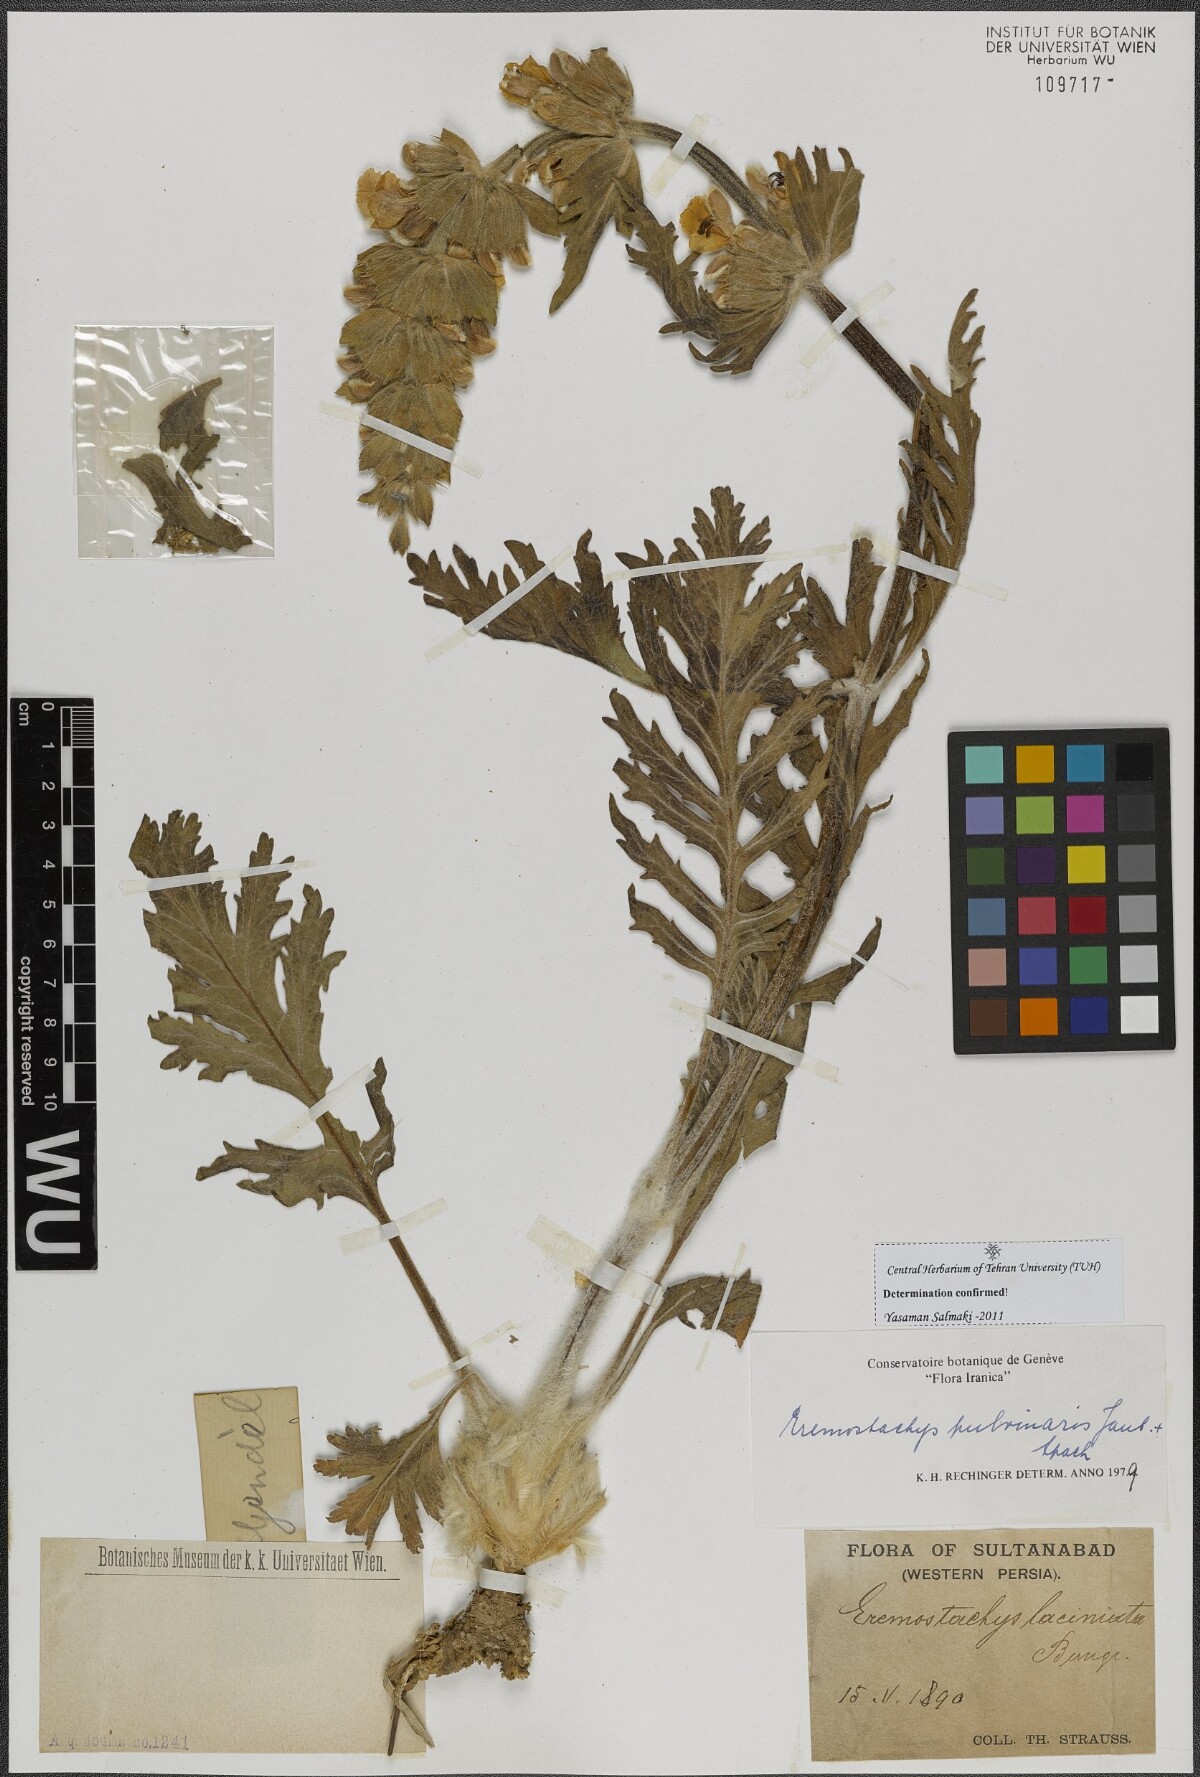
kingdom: Plantae
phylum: Tracheophyta
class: Magnoliopsida
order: Lamiales
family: Lamiaceae
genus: Phlomoides
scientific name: Phlomoides pulvinaris
